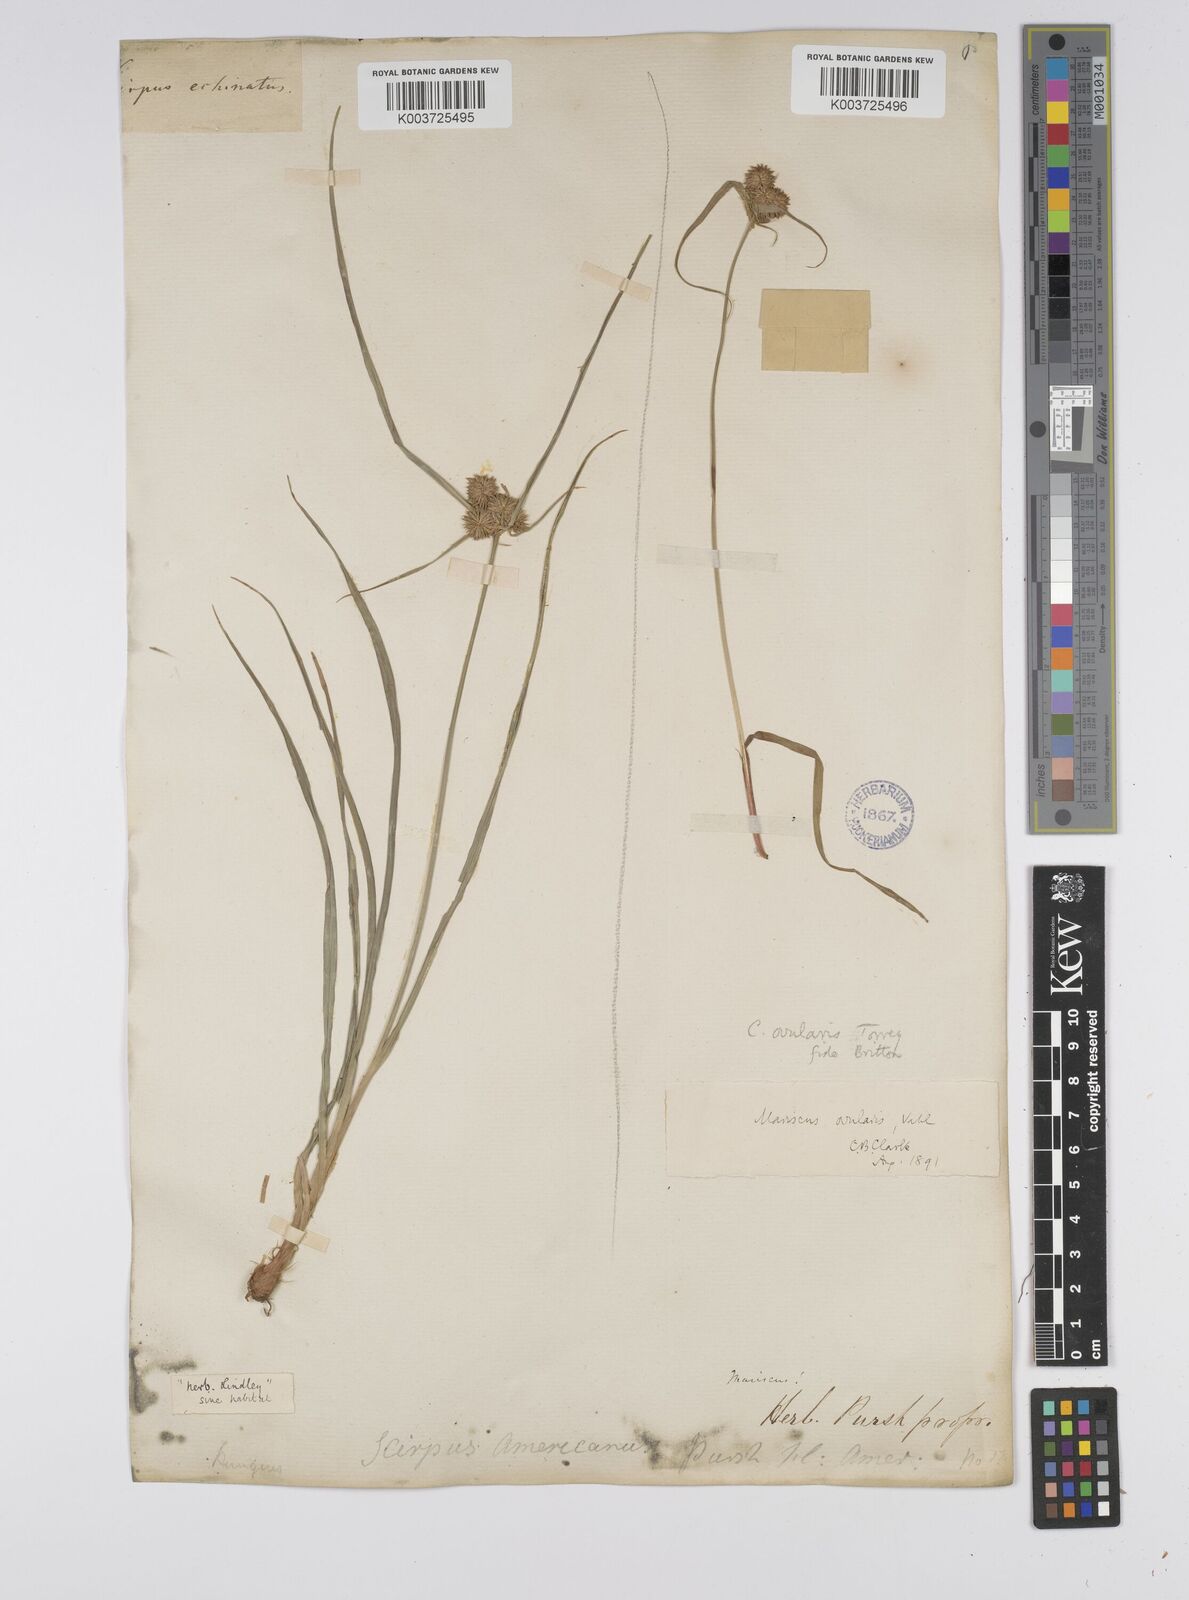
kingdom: Plantae
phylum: Tracheophyta
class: Liliopsida
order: Poales
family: Cyperaceae
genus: Cyperus
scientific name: Cyperus echinatus
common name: Teasel sedge
